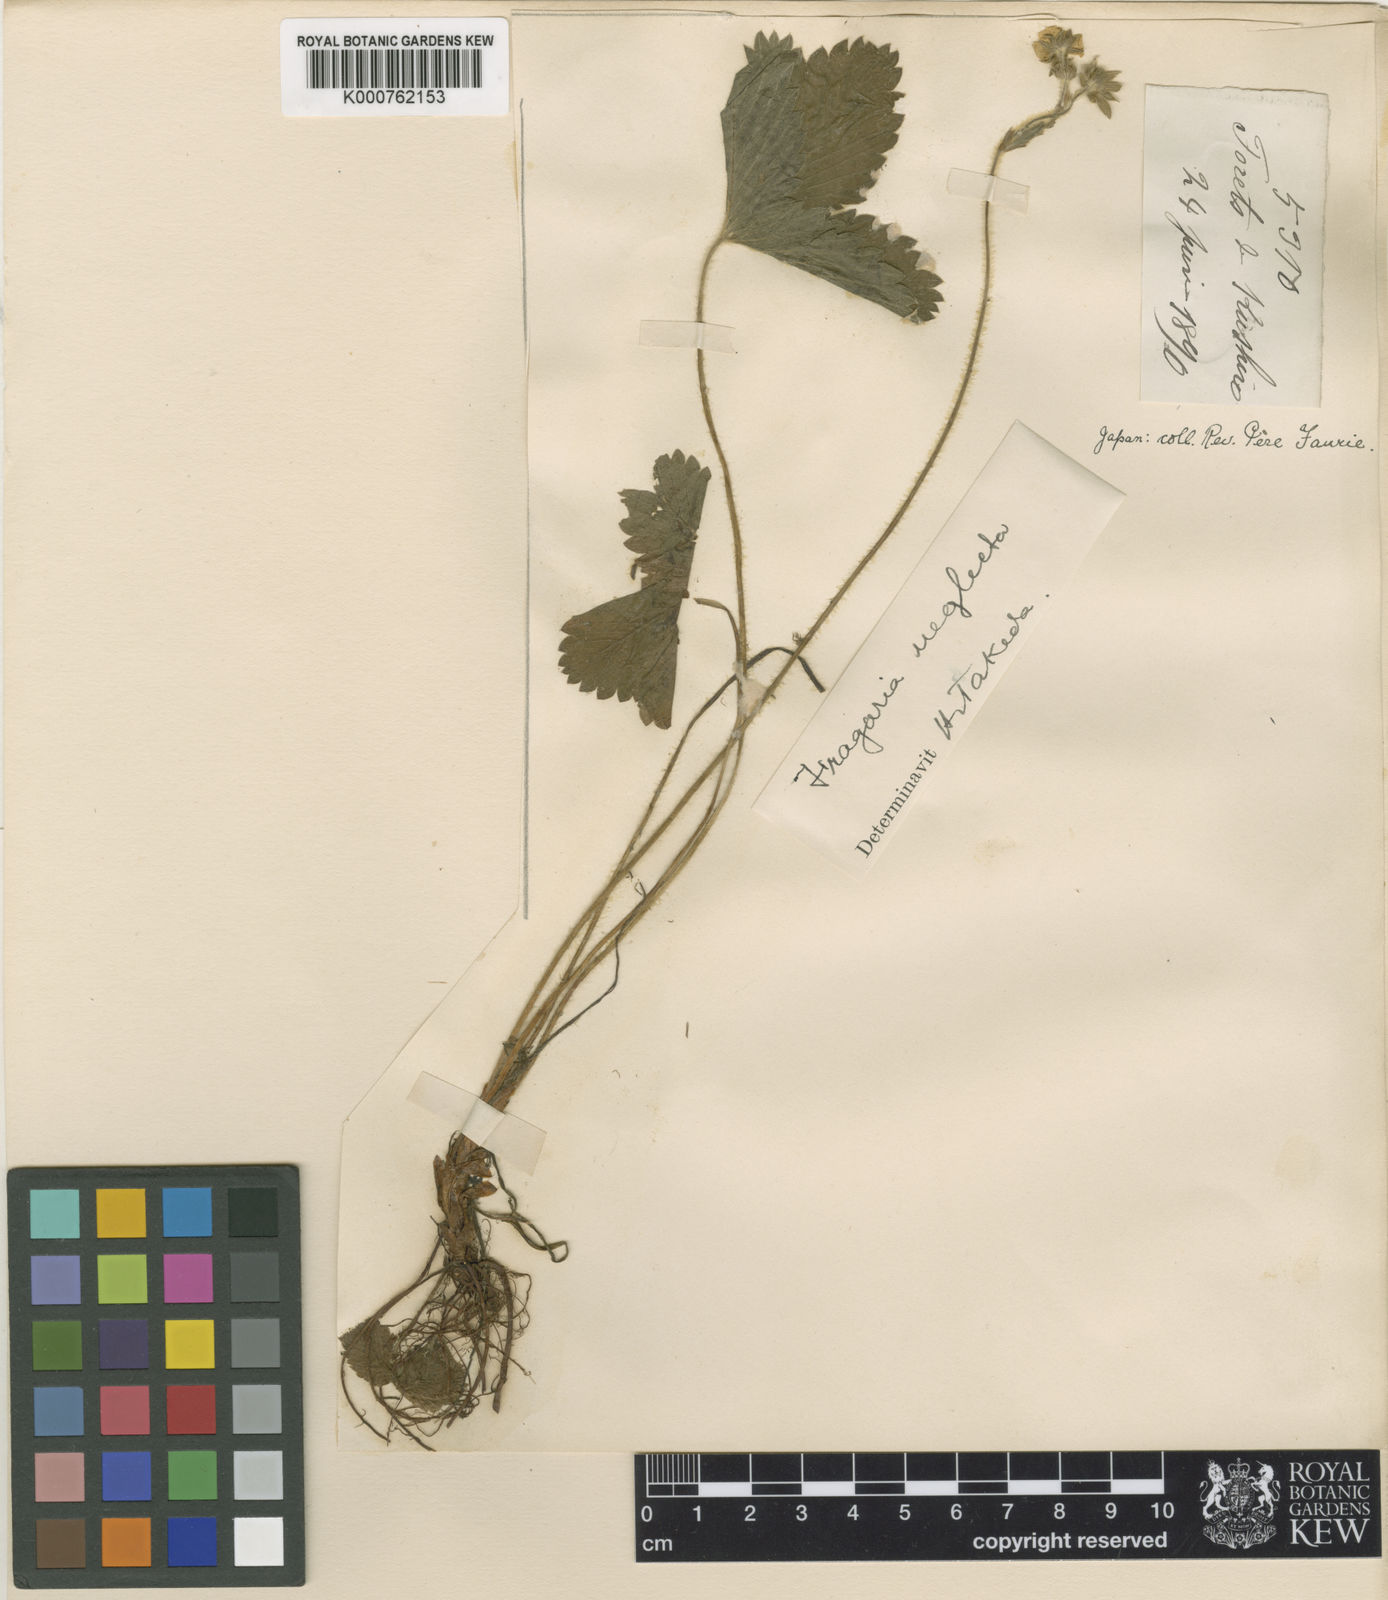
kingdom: Plantae
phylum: Tracheophyta
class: Magnoliopsida
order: Rosales
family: Rosaceae
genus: Fragaria
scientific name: Fragaria
